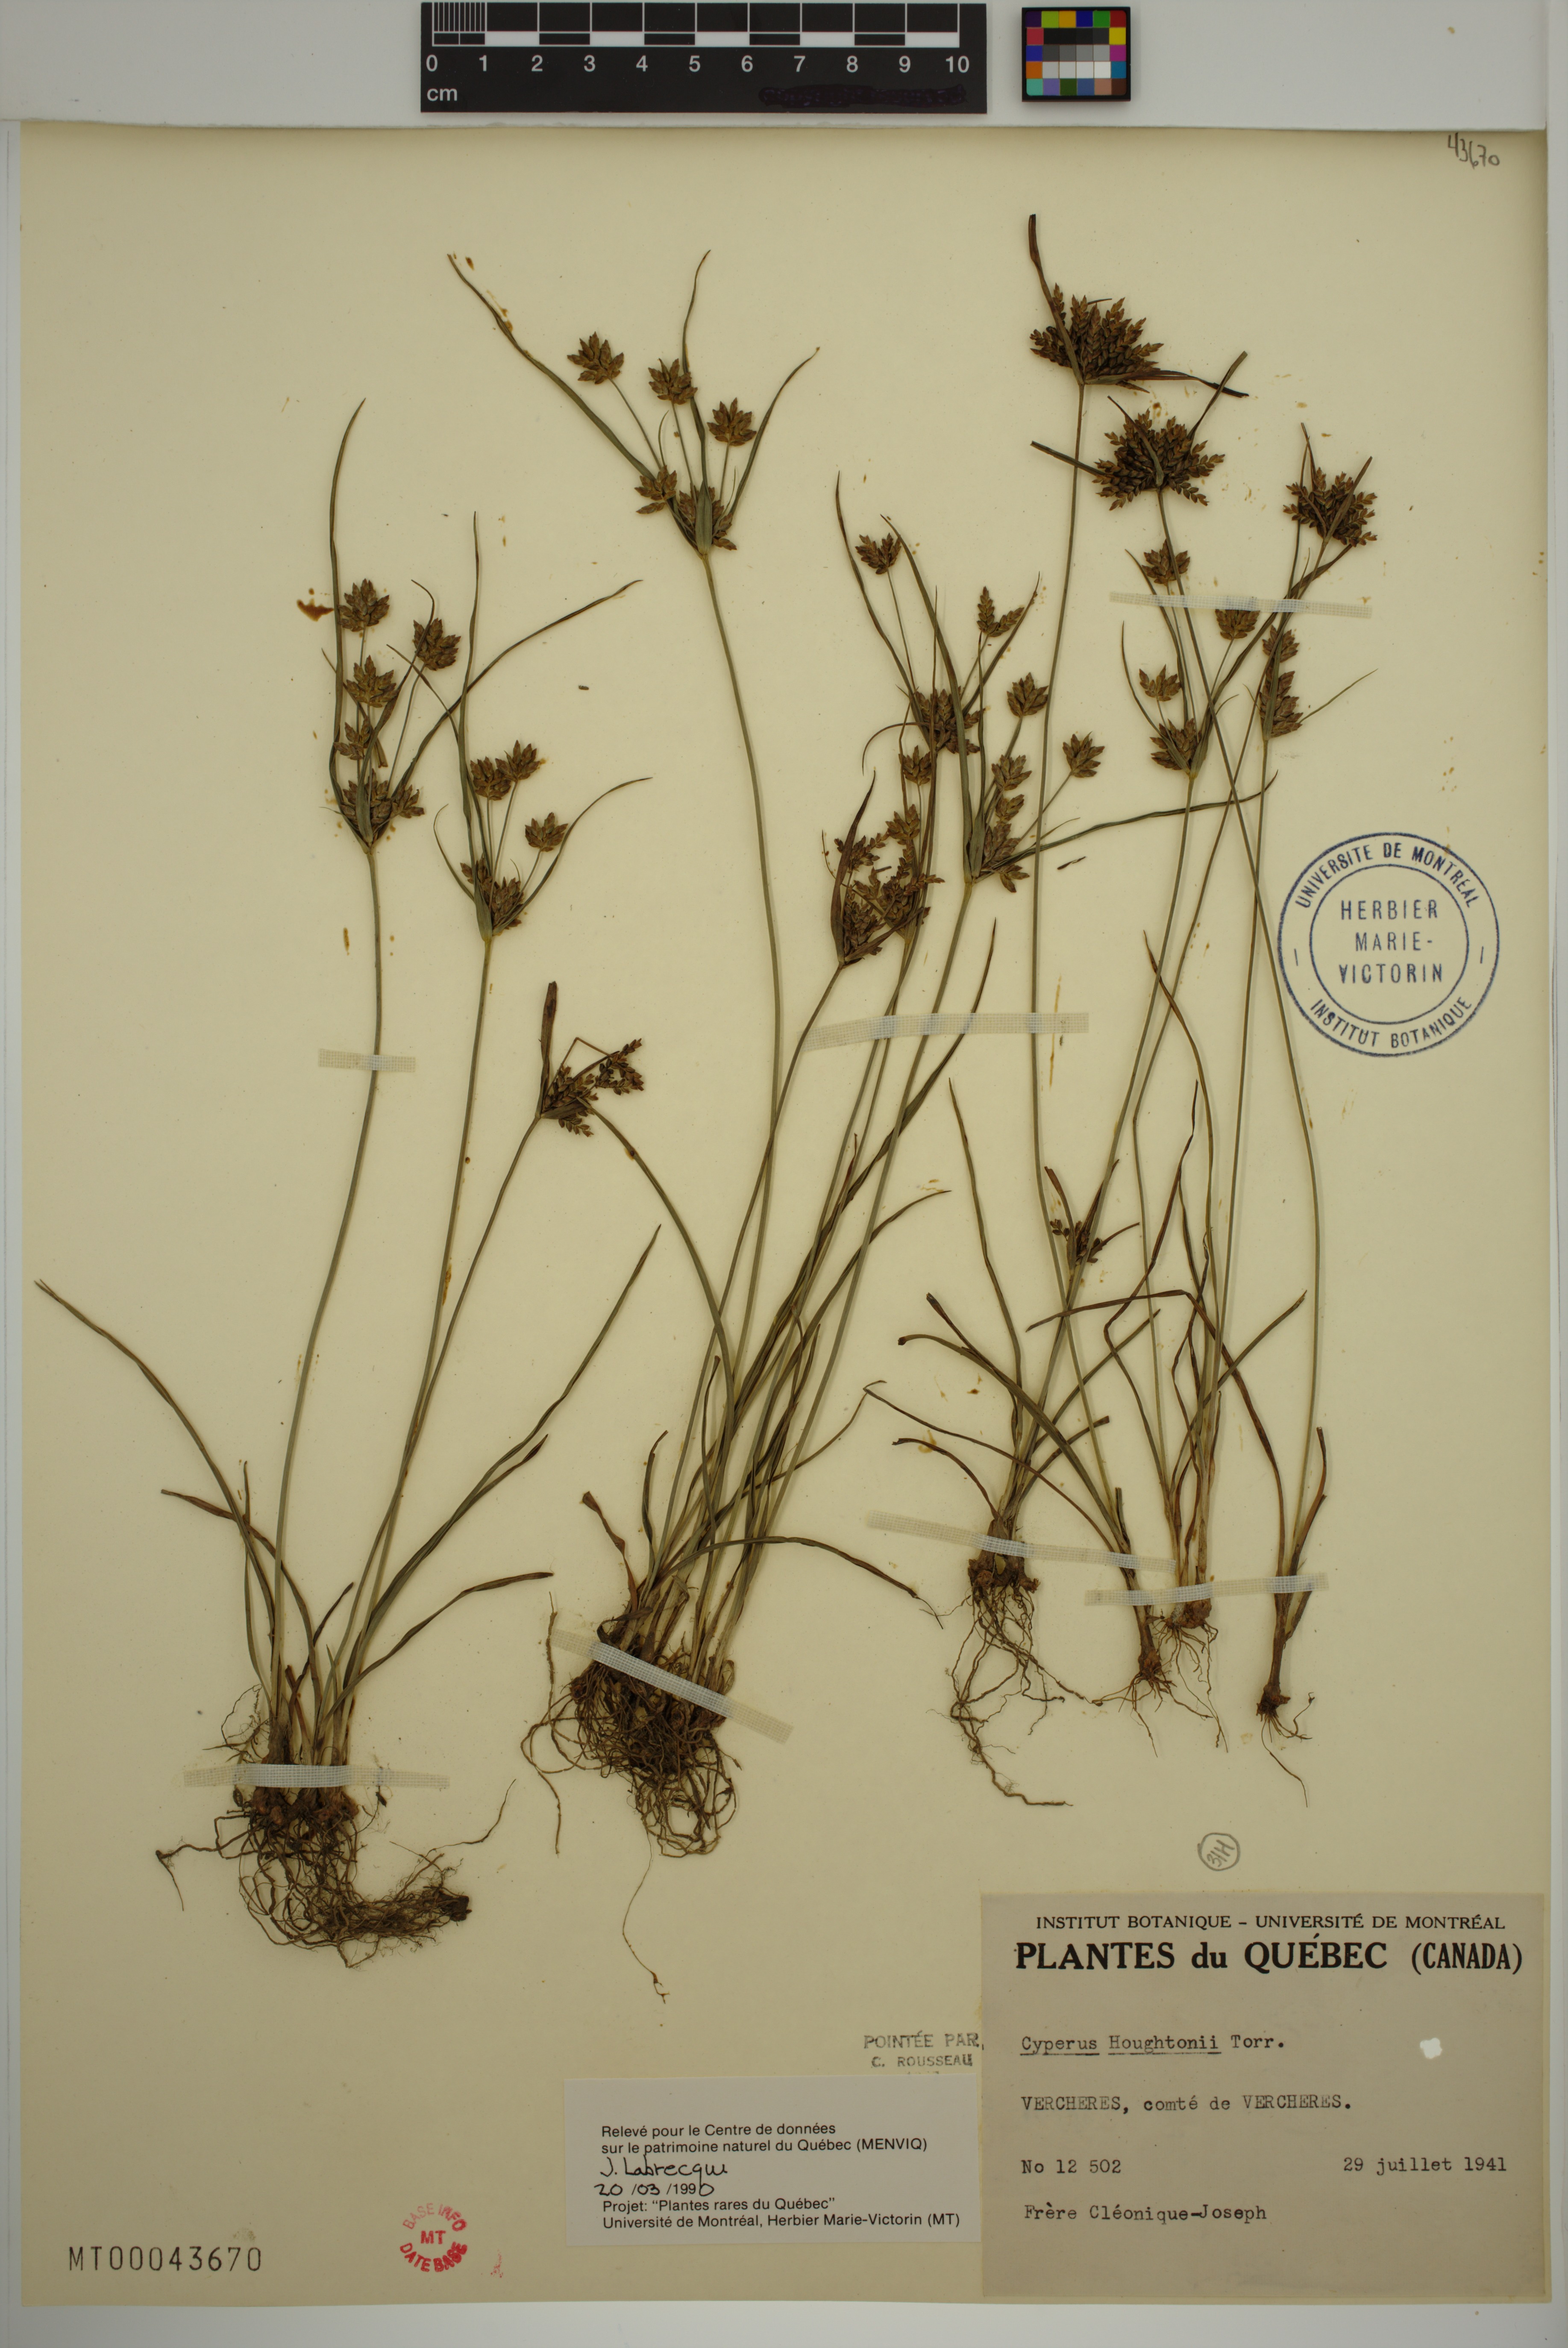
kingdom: Plantae
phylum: Tracheophyta
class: Liliopsida
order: Poales
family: Cyperaceae
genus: Cyperus
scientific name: Cyperus houghtonii
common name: Houghton's cyperus
